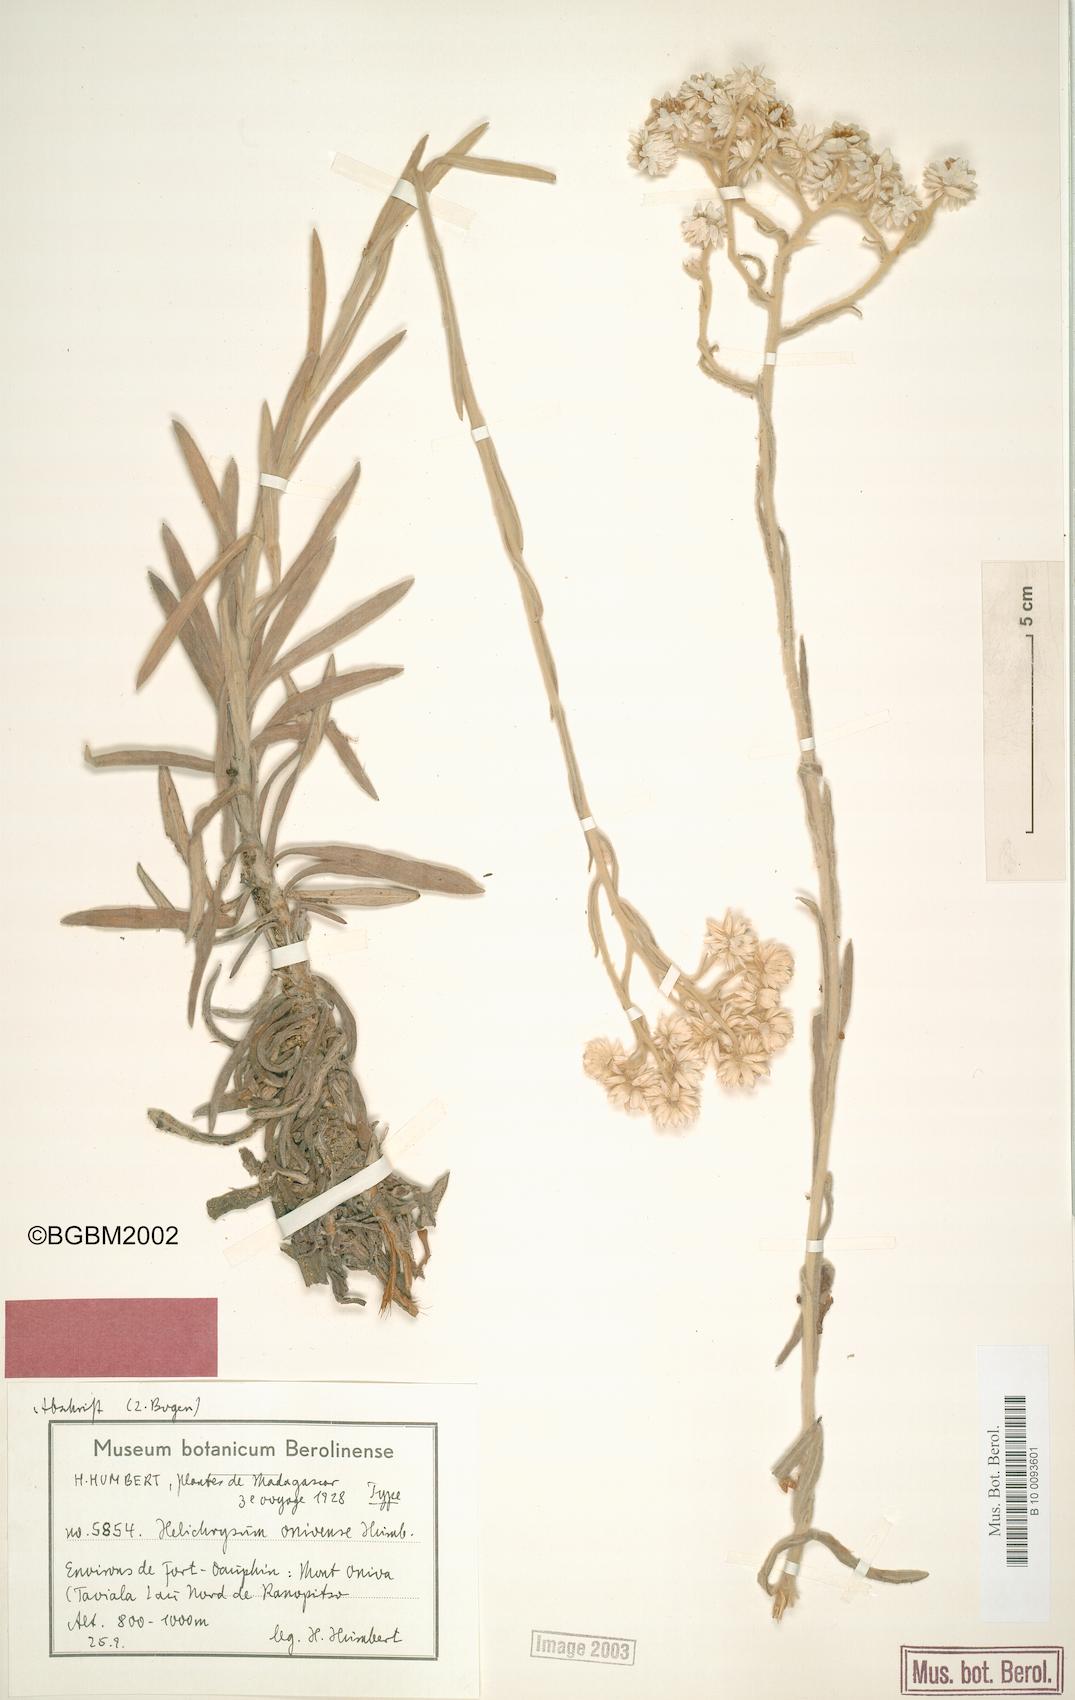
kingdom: Plantae
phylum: Tracheophyta
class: Magnoliopsida
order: Asterales
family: Asteraceae
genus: Helichrysum
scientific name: Helichrysum onivense
